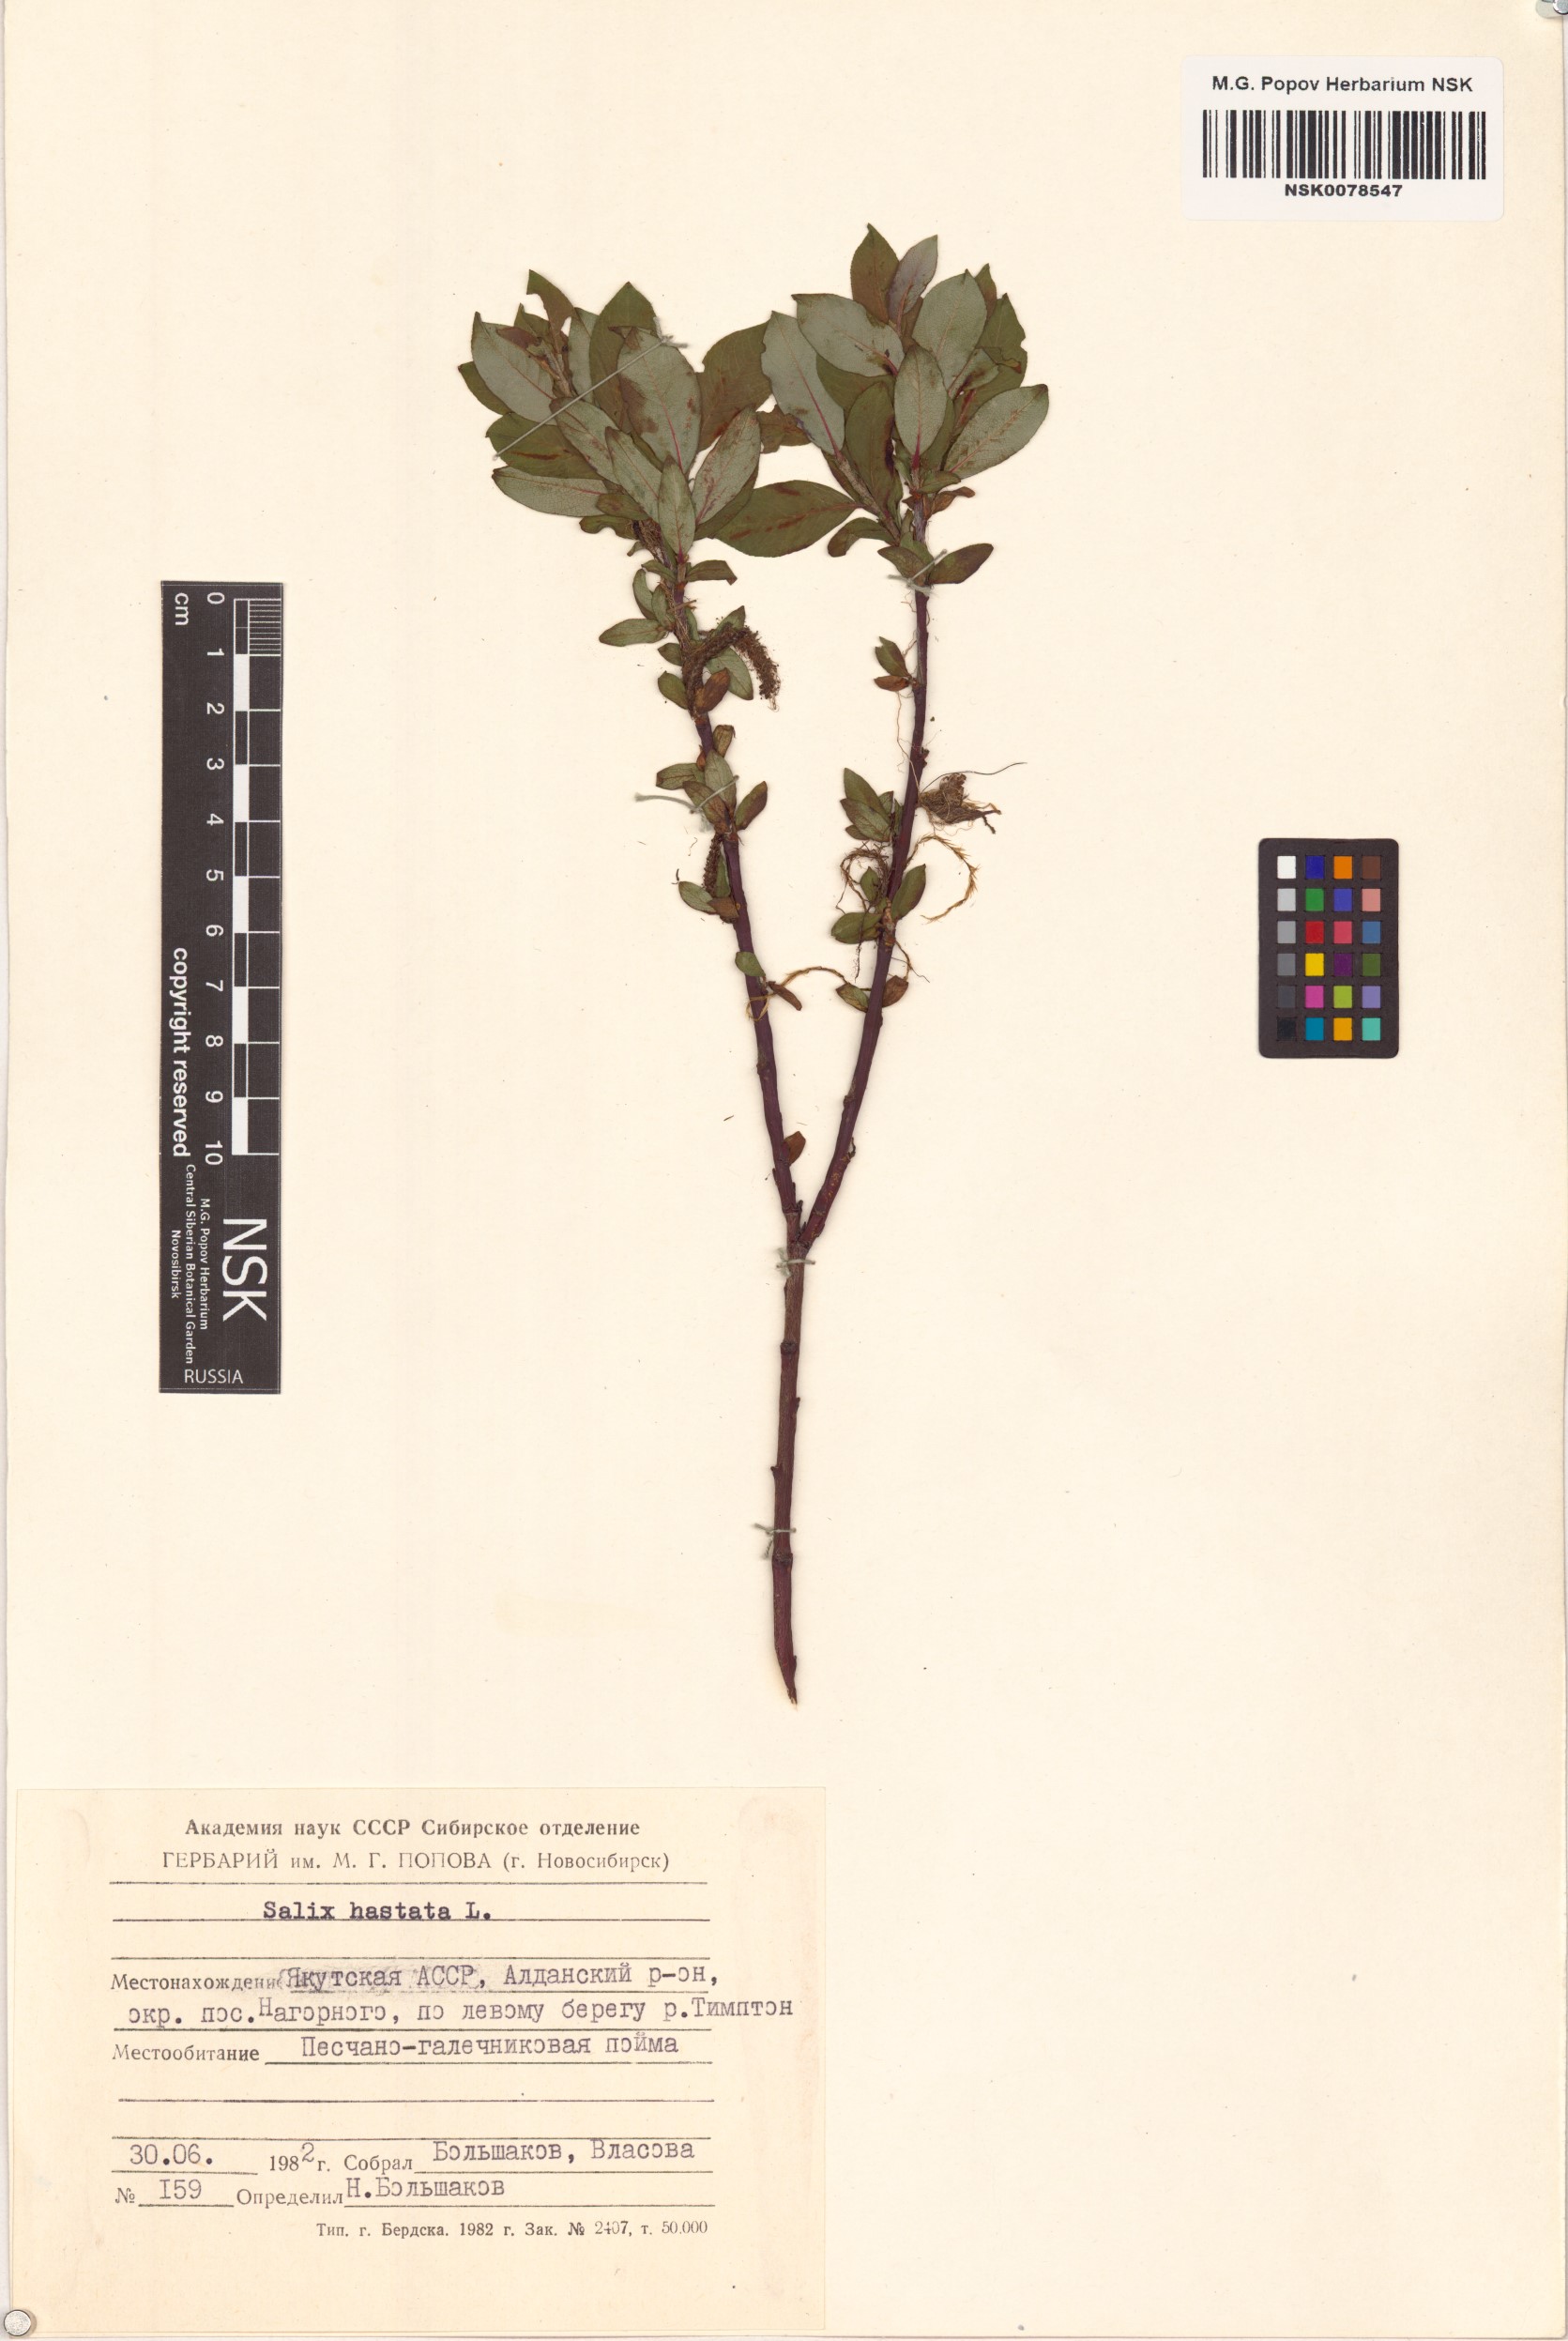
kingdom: Plantae
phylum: Tracheophyta
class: Magnoliopsida
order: Malpighiales
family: Salicaceae
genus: Salix
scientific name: Salix hastata
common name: Halberd willow
